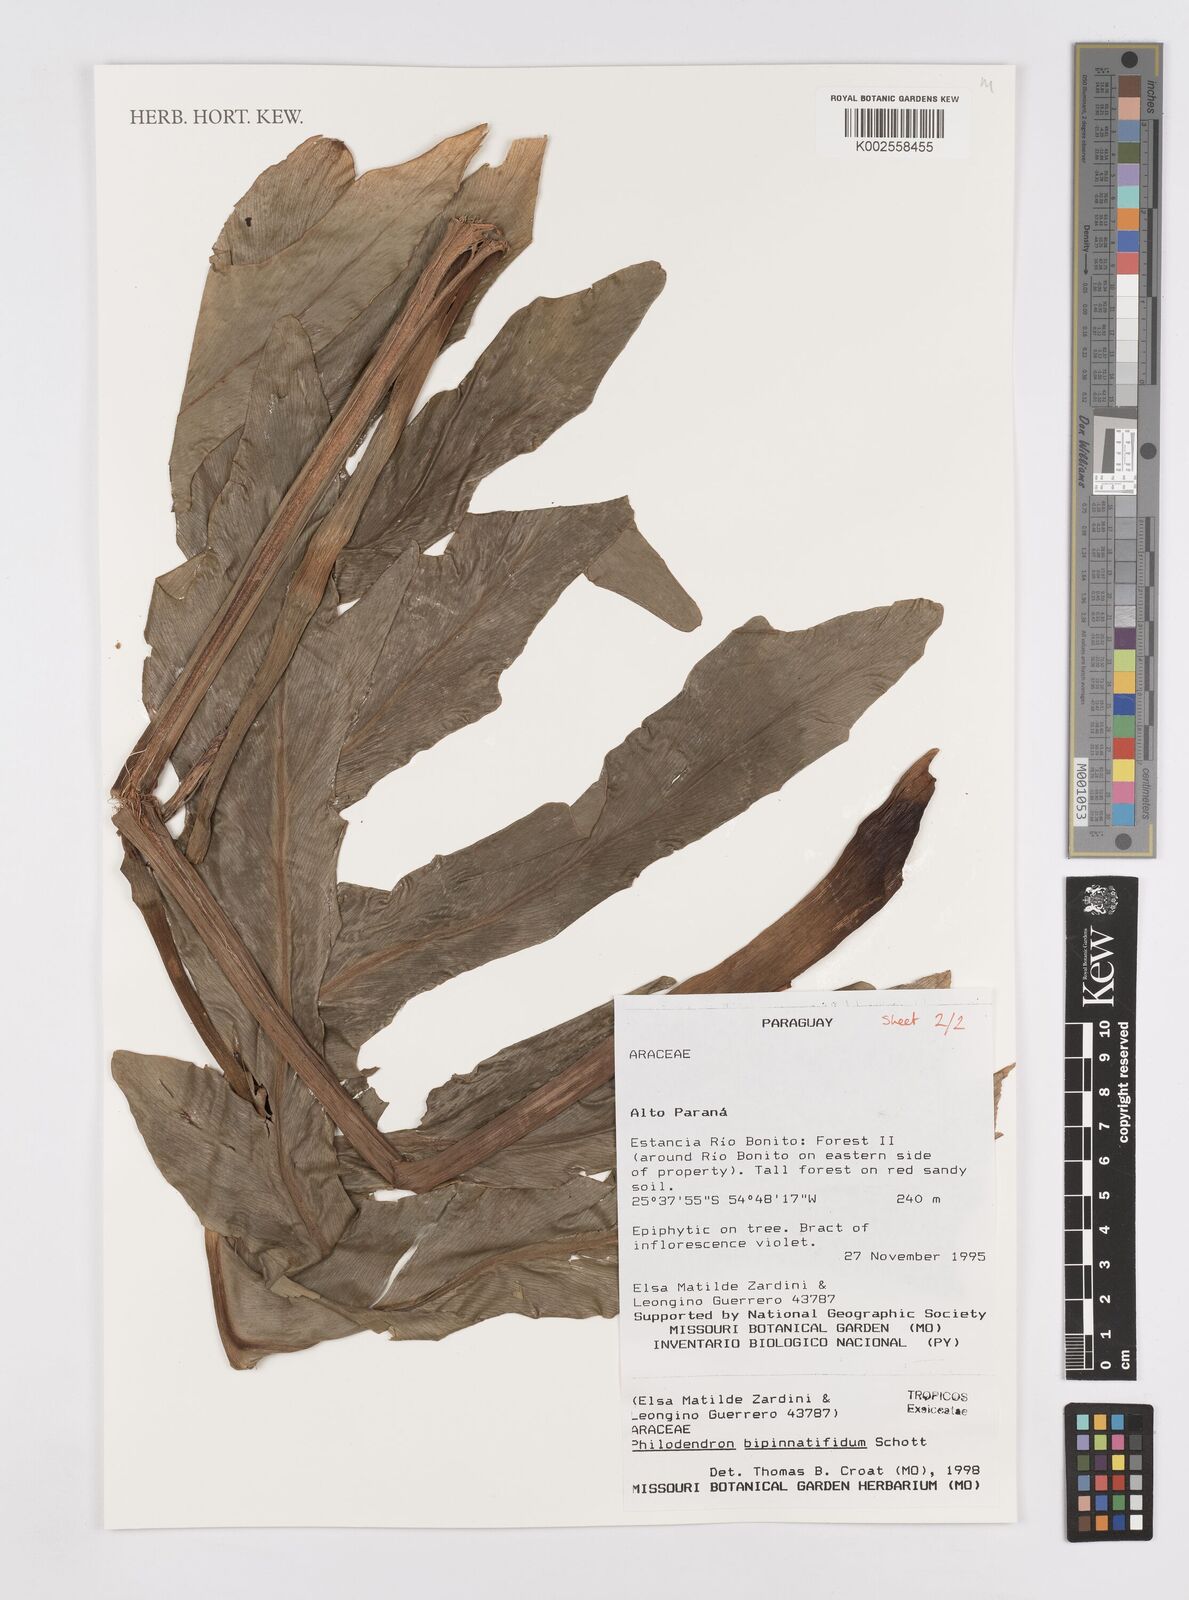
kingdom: Plantae
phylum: Tracheophyta
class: Liliopsida
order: Alismatales
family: Araceae
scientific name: Araceae
